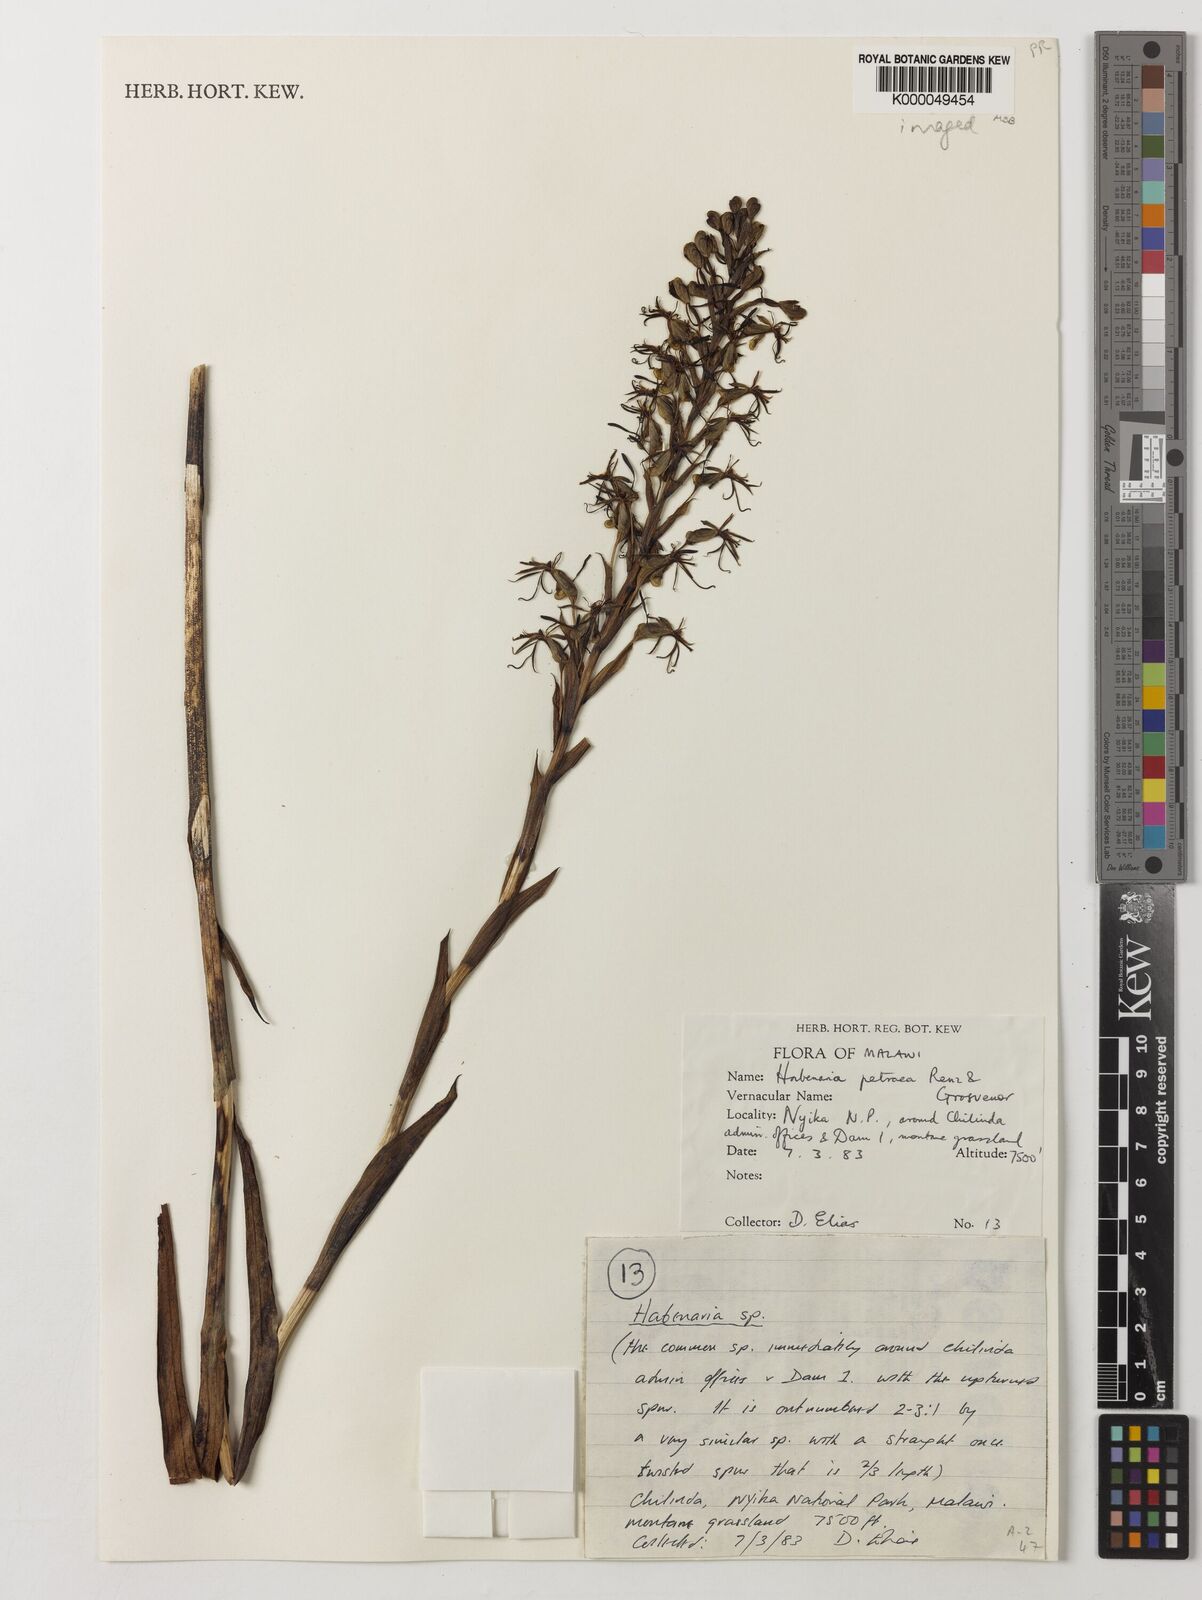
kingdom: Plantae
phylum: Tracheophyta
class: Liliopsida
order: Asparagales
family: Orchidaceae
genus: Habenaria
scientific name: Habenaria petraea
